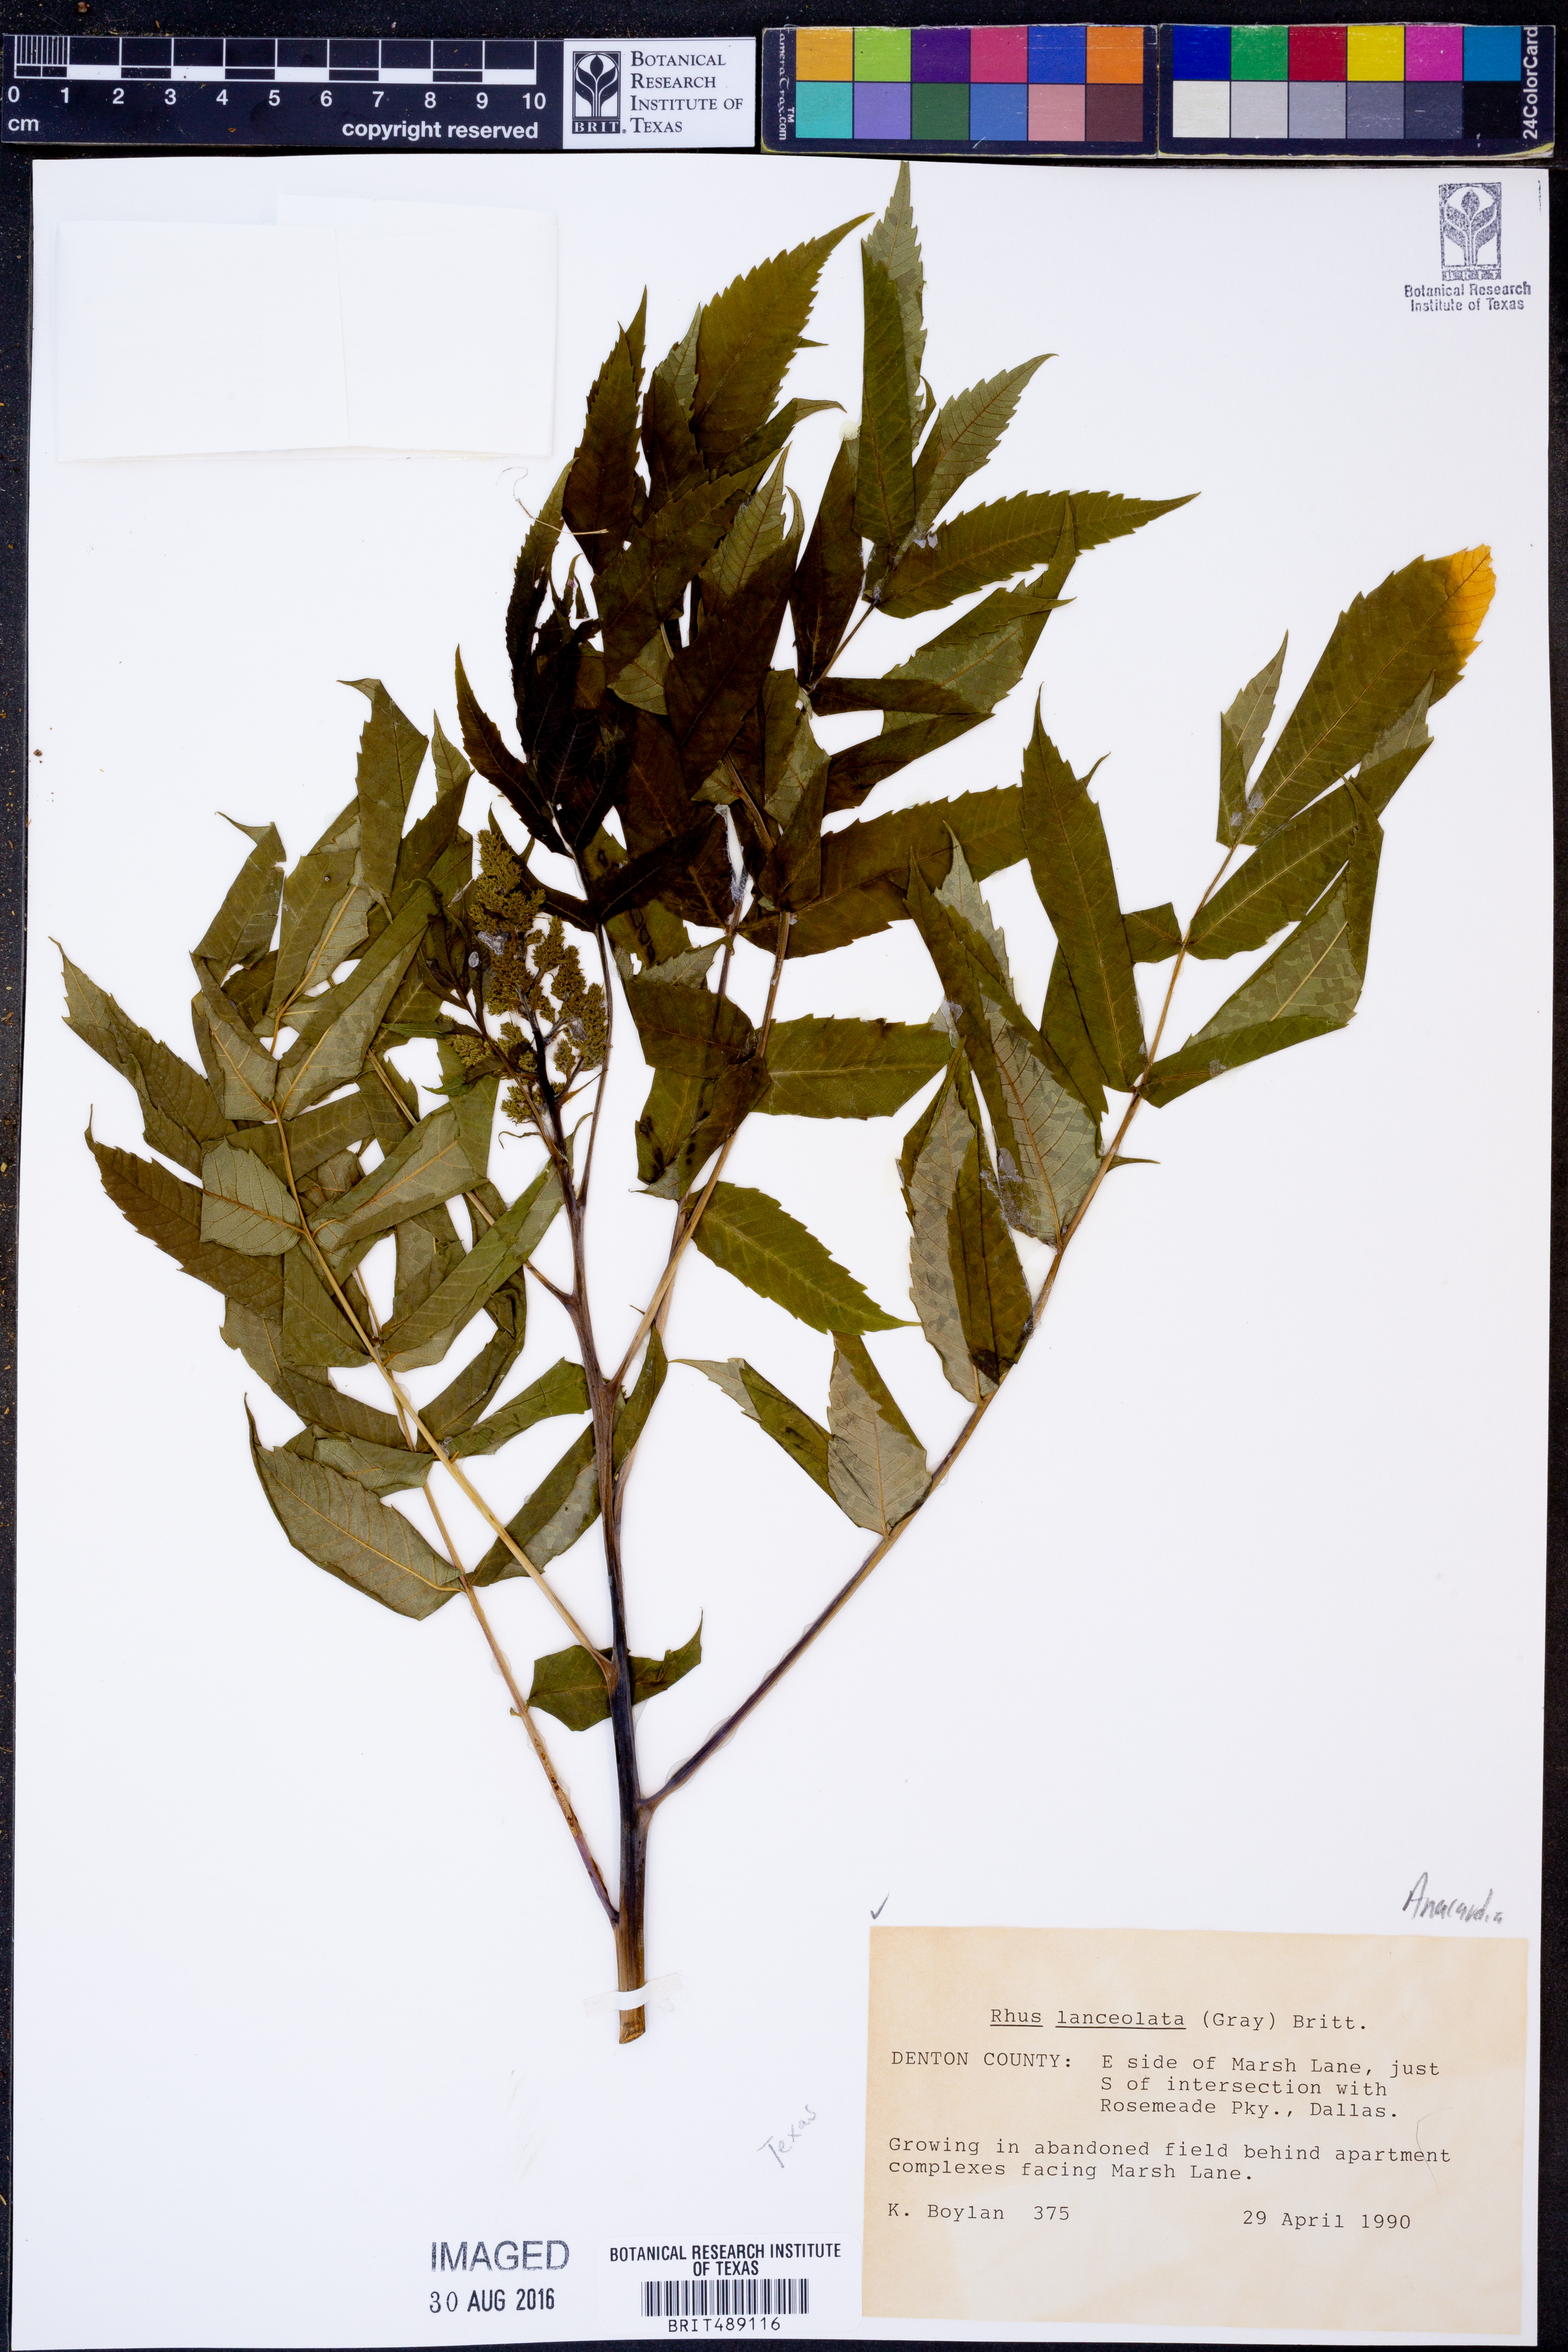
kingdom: Plantae
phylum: Tracheophyta
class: Magnoliopsida
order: Sapindales
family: Anacardiaceae
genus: Rhus
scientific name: Rhus lanceolata
